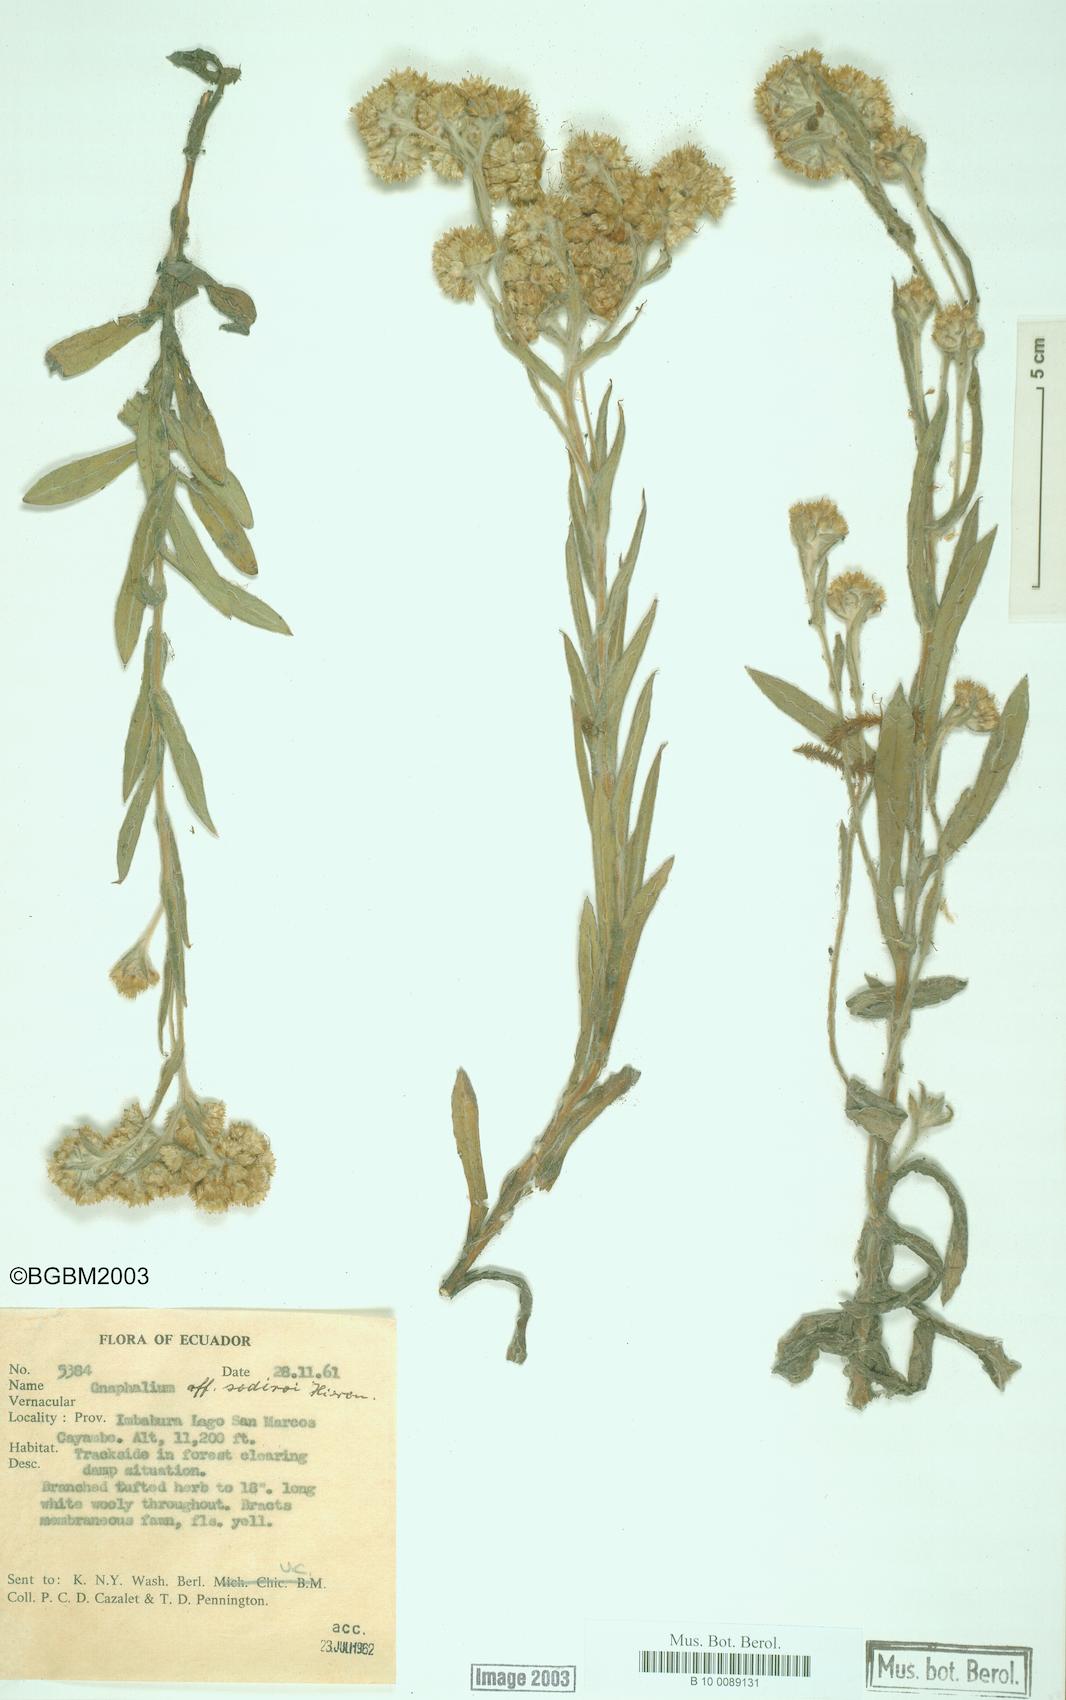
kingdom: Plantae
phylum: Tracheophyta
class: Magnoliopsida
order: Asterales
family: Asteraceae
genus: Pseudognaphalium
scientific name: Pseudognaphalium
